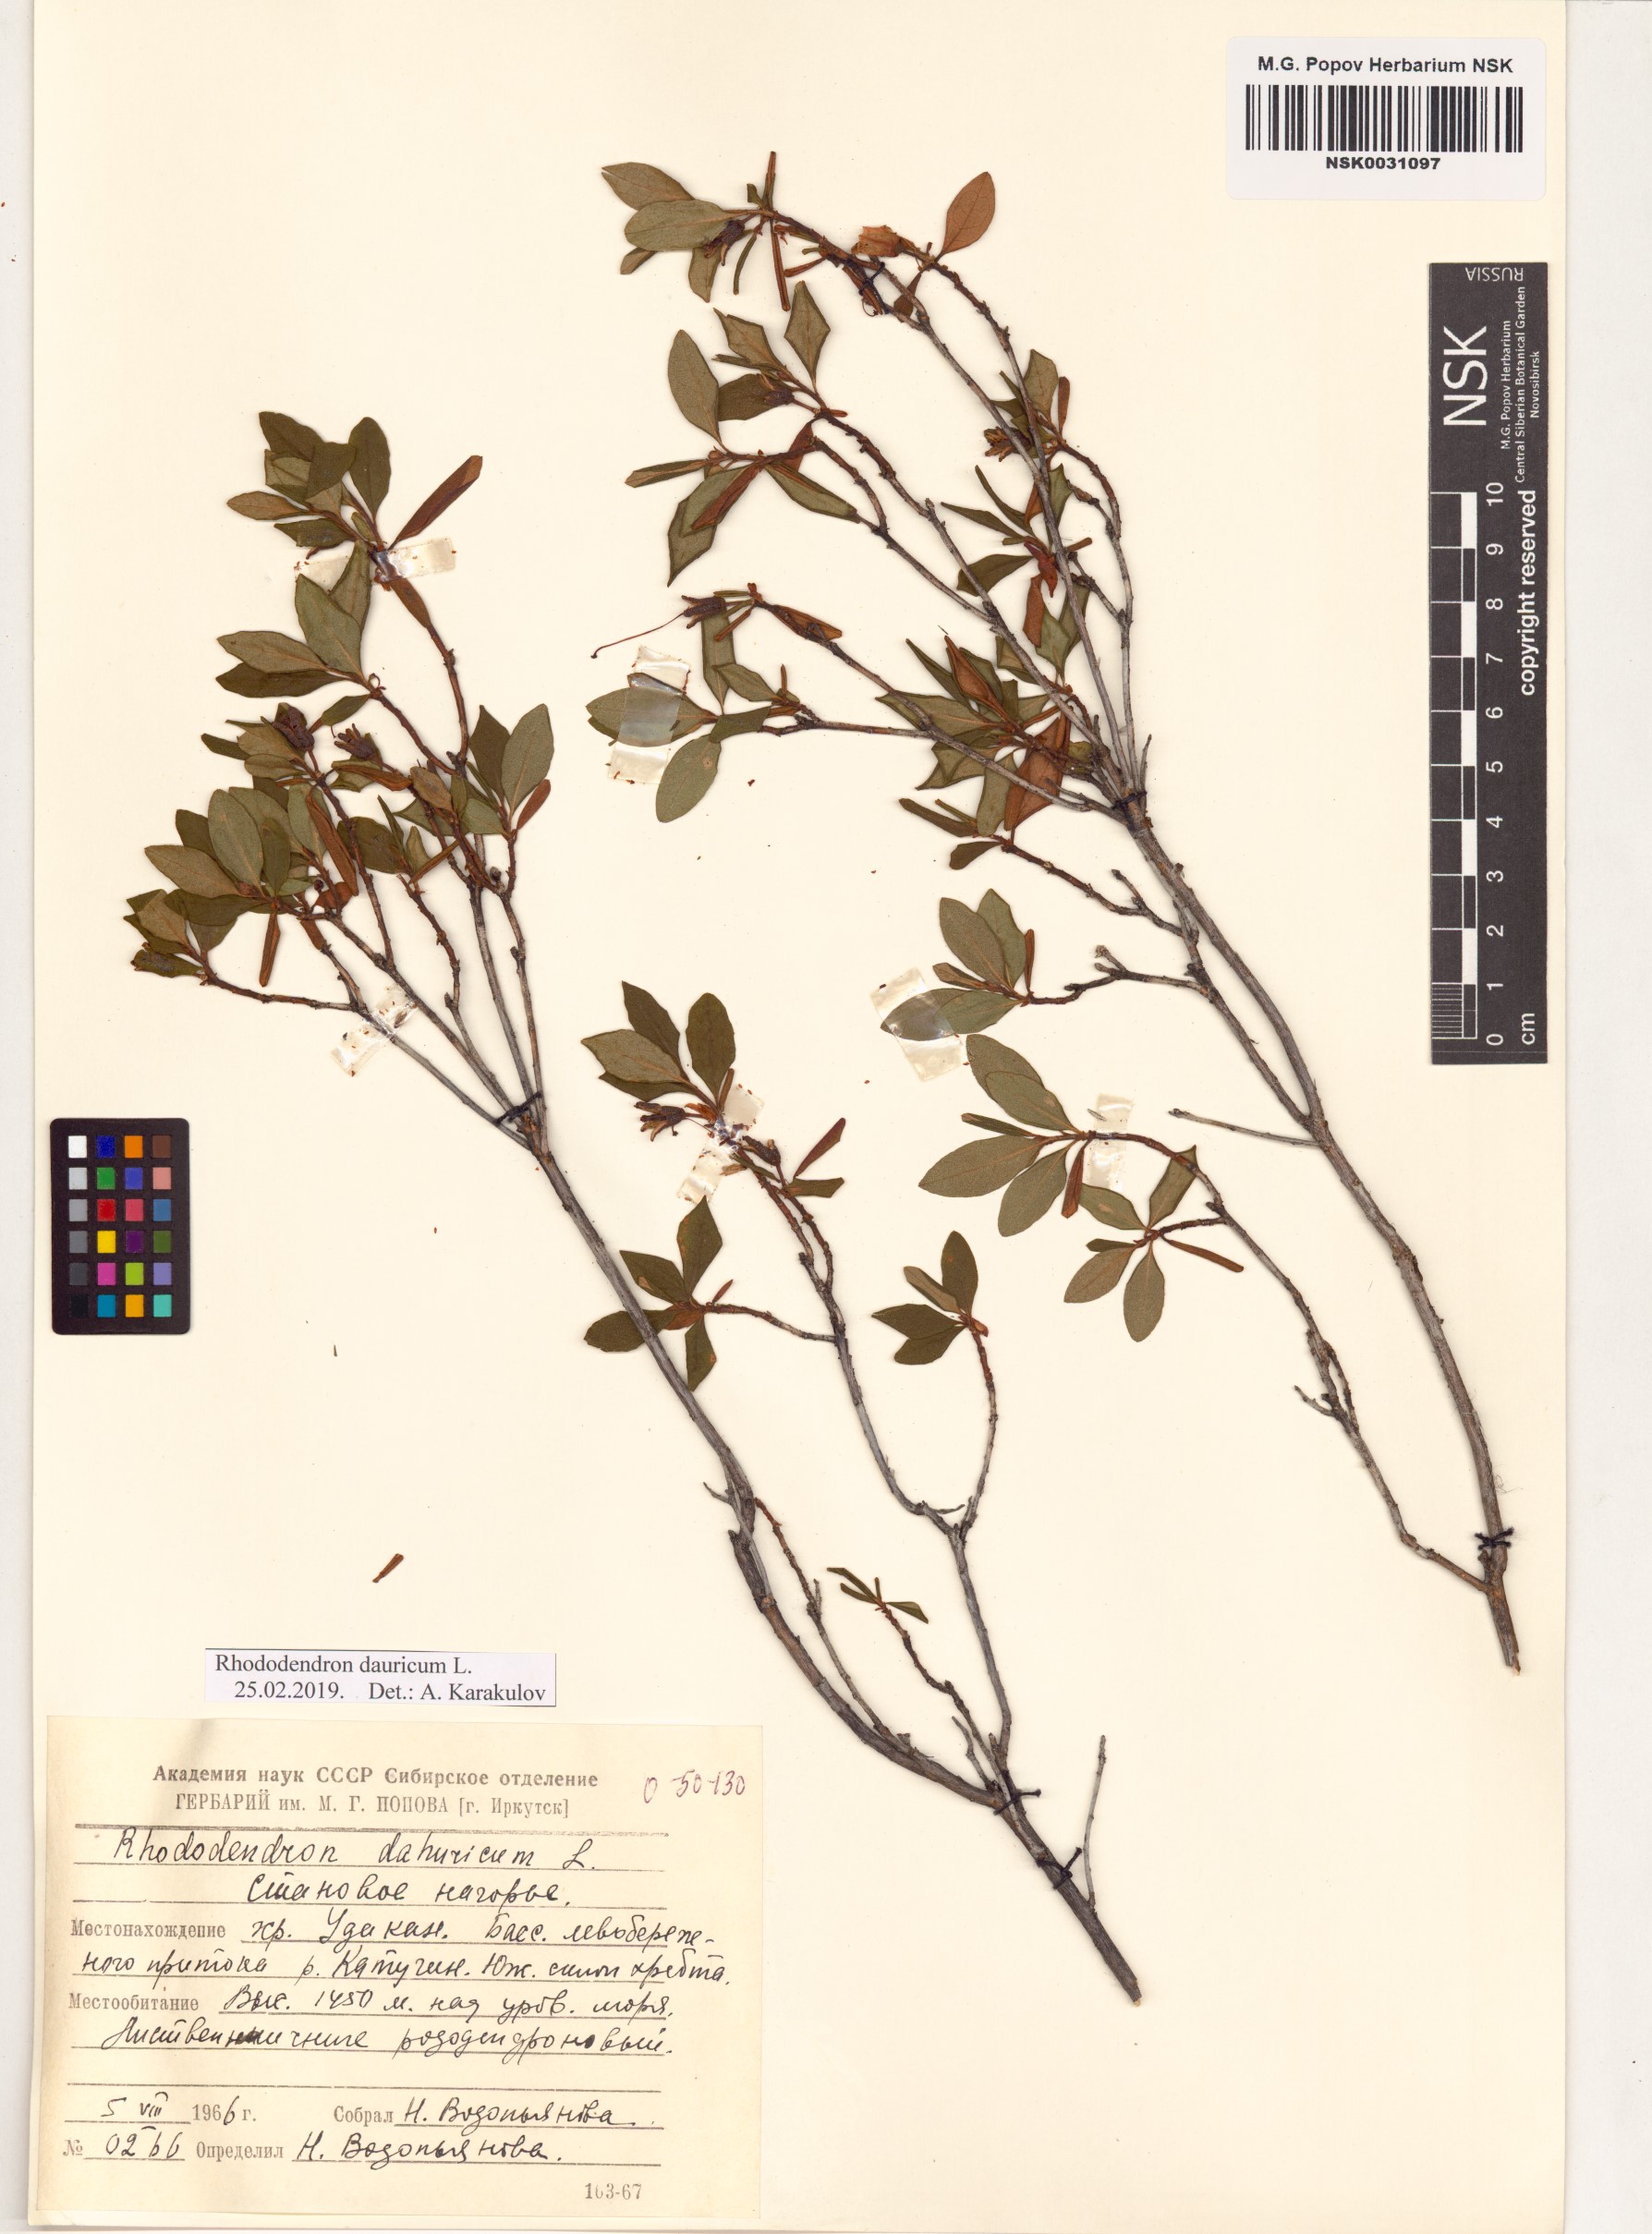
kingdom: Plantae
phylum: Tracheophyta
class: Magnoliopsida
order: Ericales
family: Ericaceae
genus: Rhododendron
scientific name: Rhododendron dauricum
